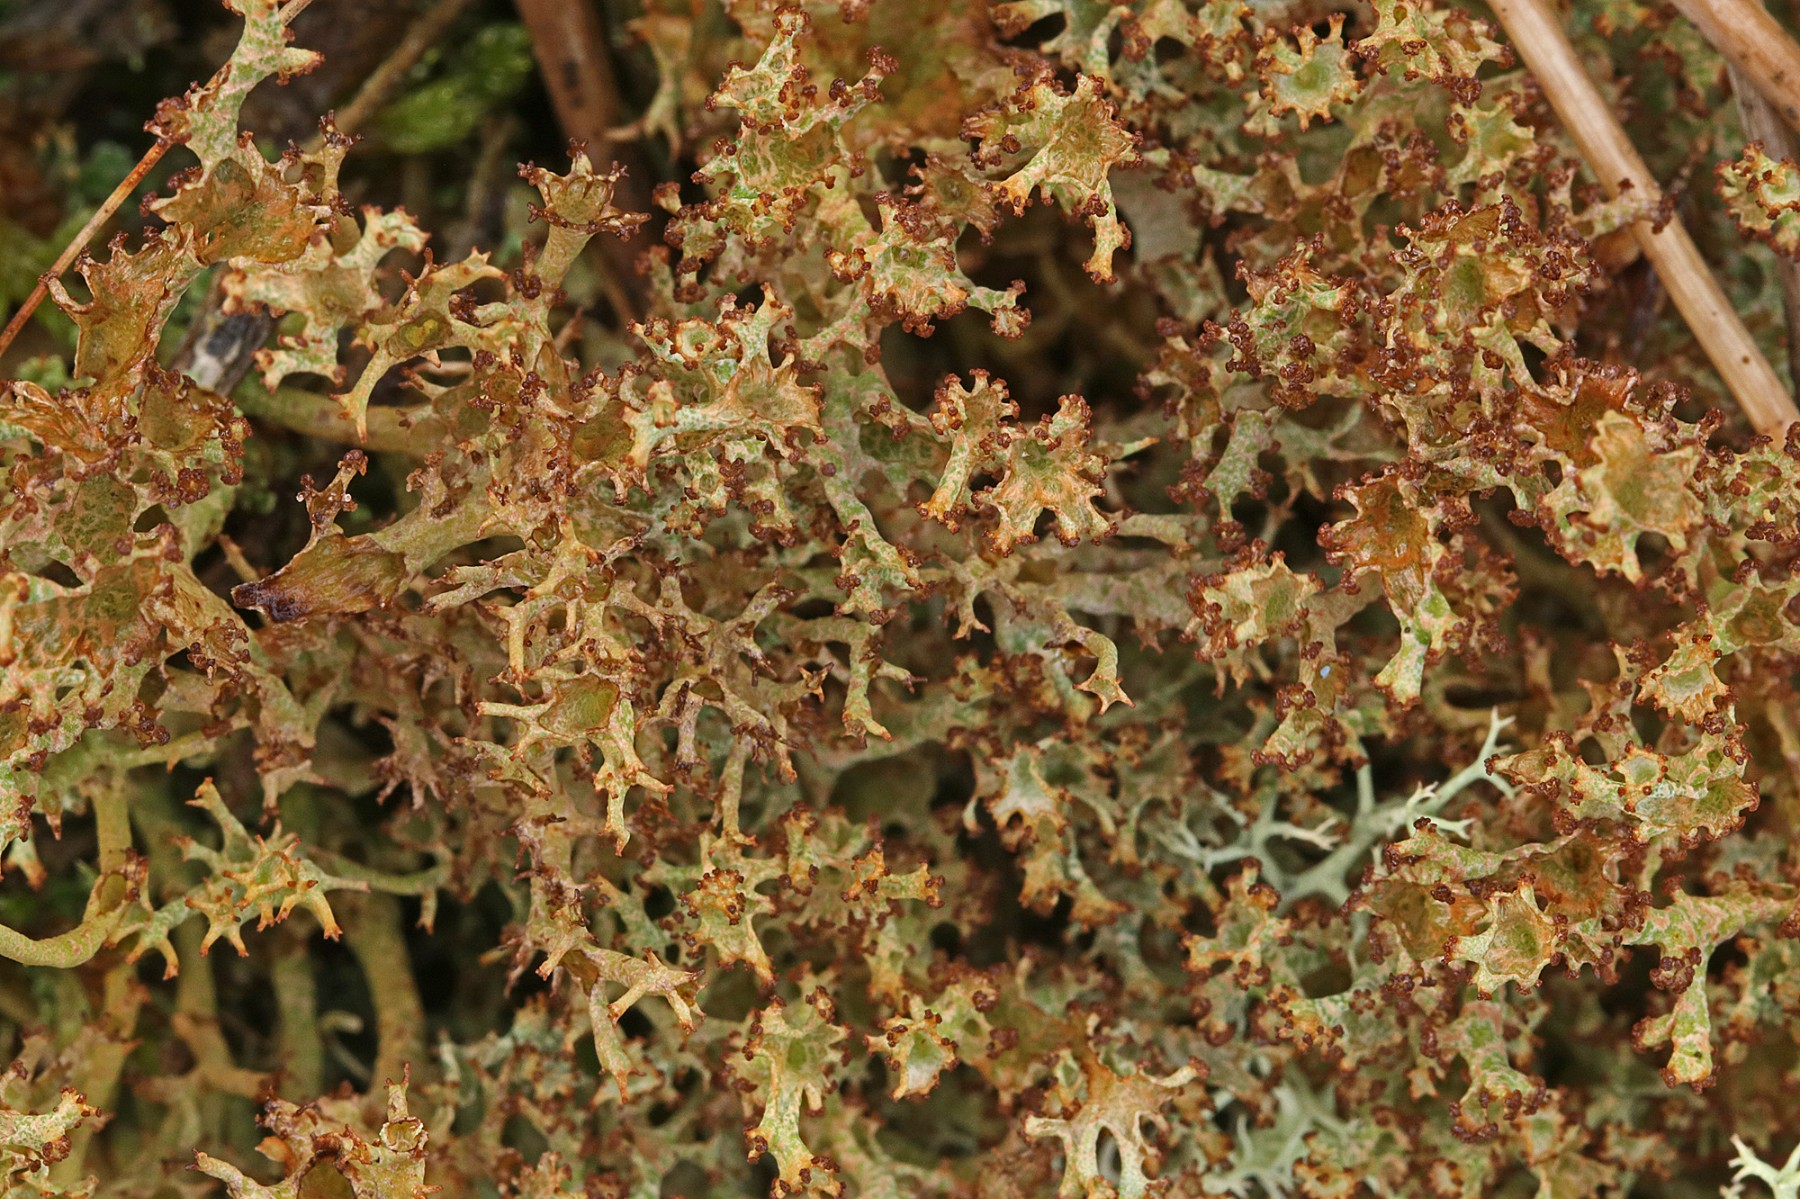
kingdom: Fungi
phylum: Ascomycota
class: Lecanoromycetes
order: Lecanorales
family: Cladoniaceae
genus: Cladonia
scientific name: Cladonia crispata
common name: takket bægerlav
